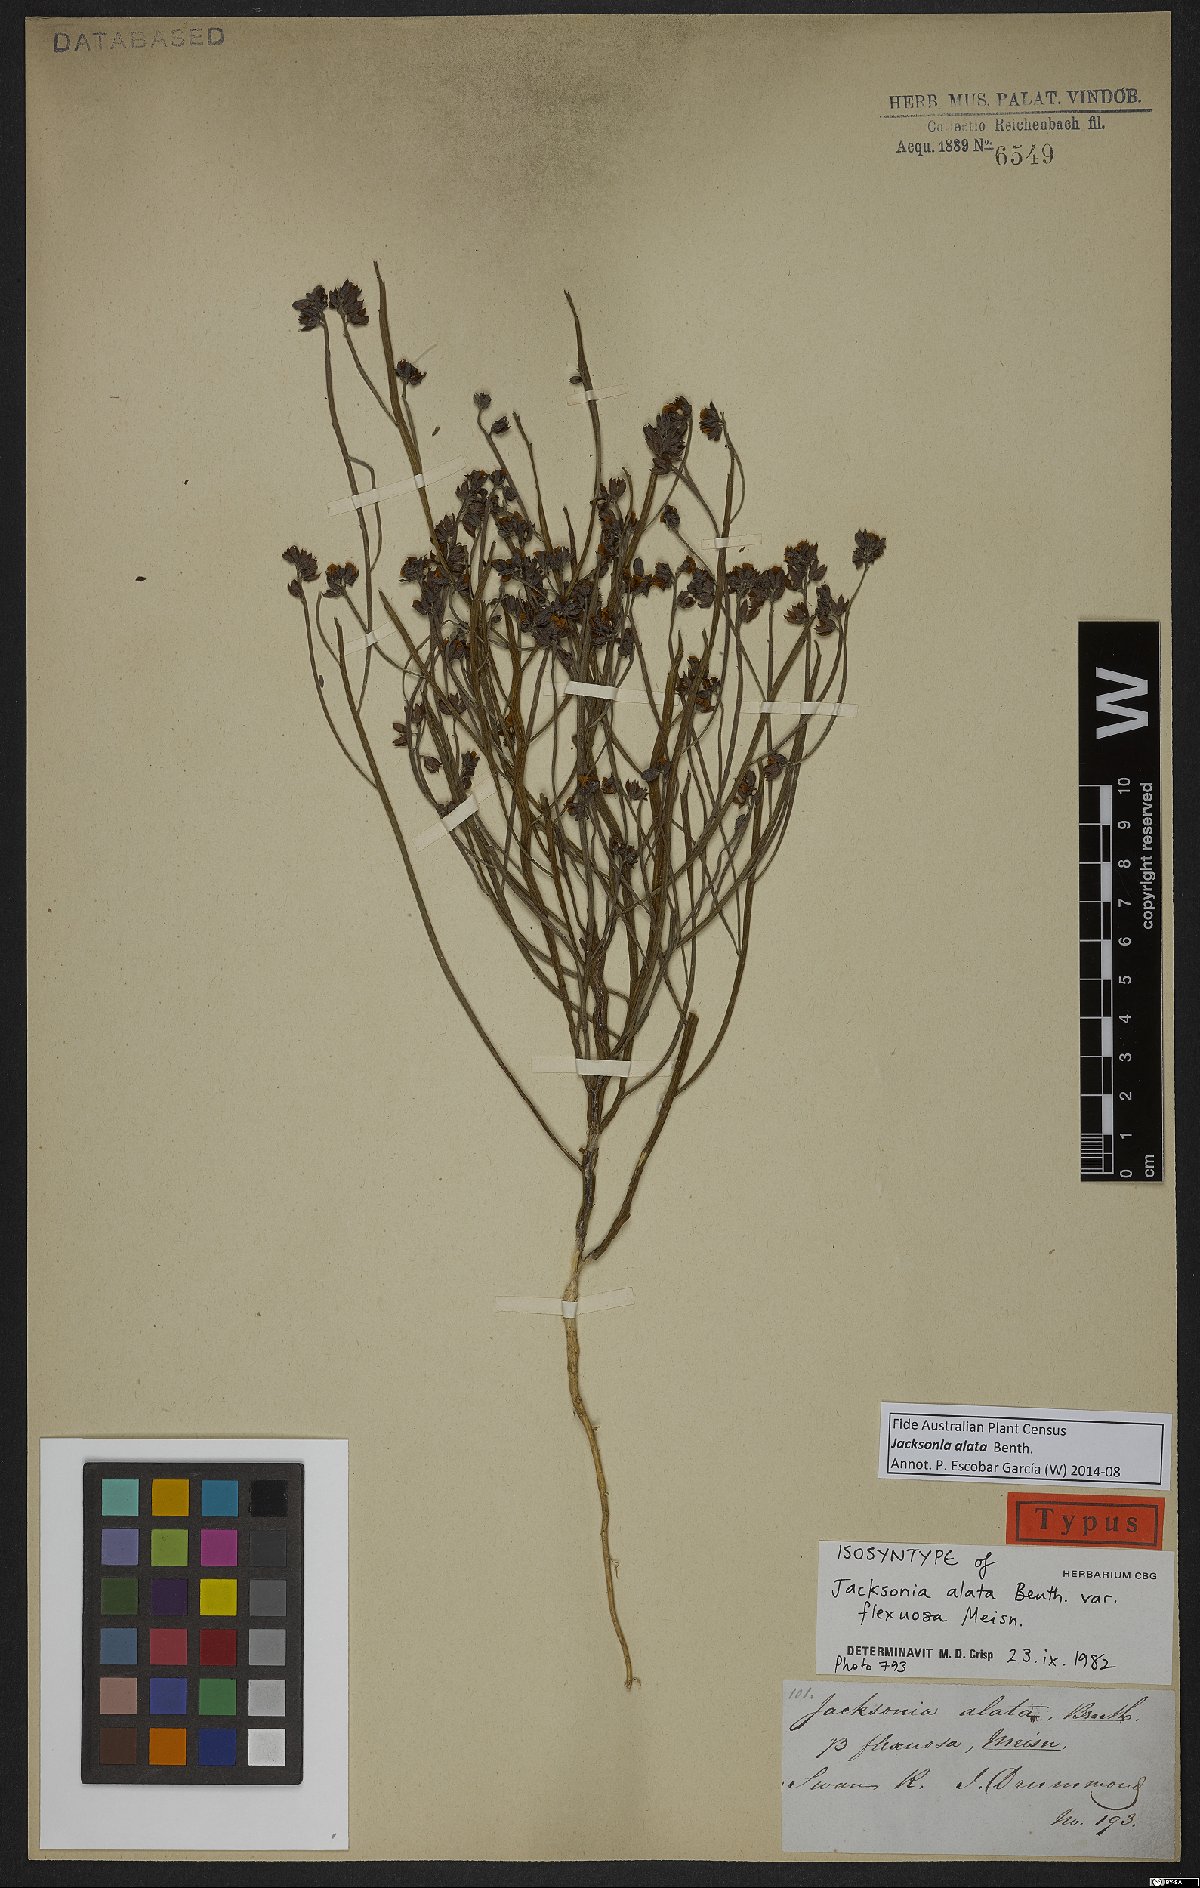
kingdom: Plantae
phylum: Tracheophyta
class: Magnoliopsida
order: Fabales
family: Fabaceae
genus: Jacksonia
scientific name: Jacksonia alata
